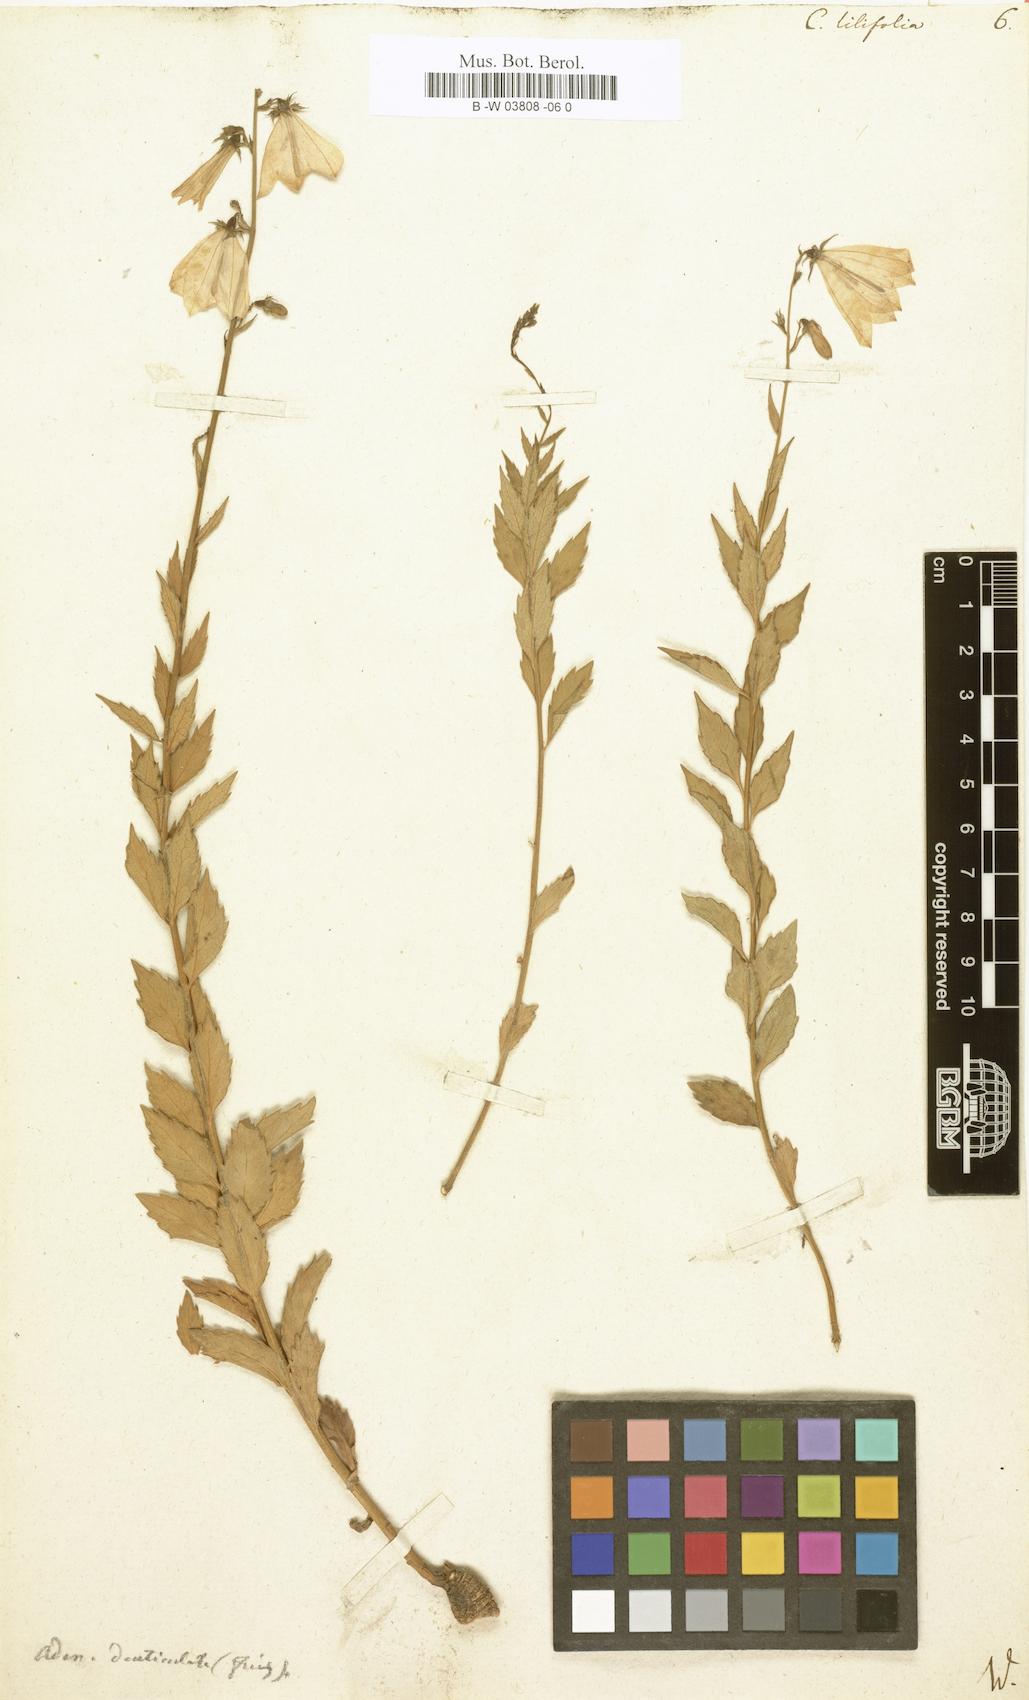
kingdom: Plantae
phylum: Tracheophyta
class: Magnoliopsida
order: Asterales
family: Campanulaceae
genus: Campanula
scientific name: Campanula lilifolia
